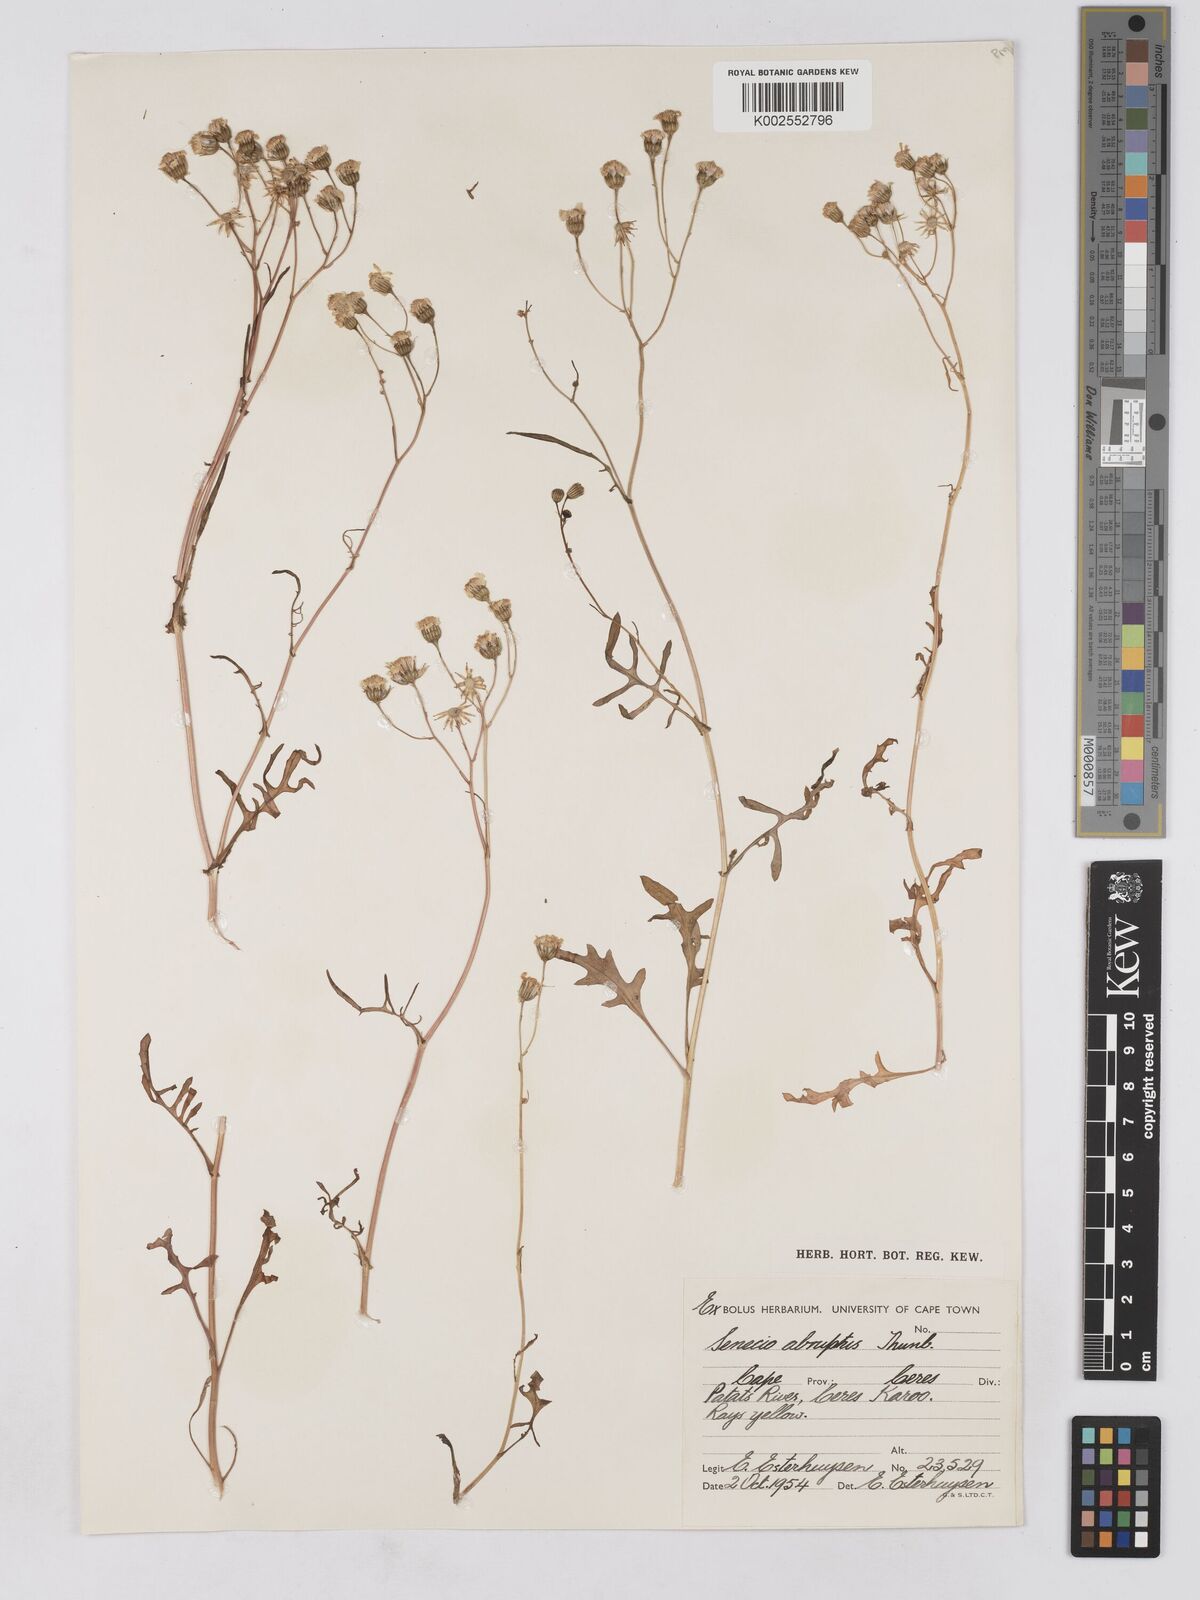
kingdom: Plantae
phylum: Tracheophyta
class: Magnoliopsida
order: Asterales
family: Asteraceae
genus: Senecio
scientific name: Senecio abruptus
